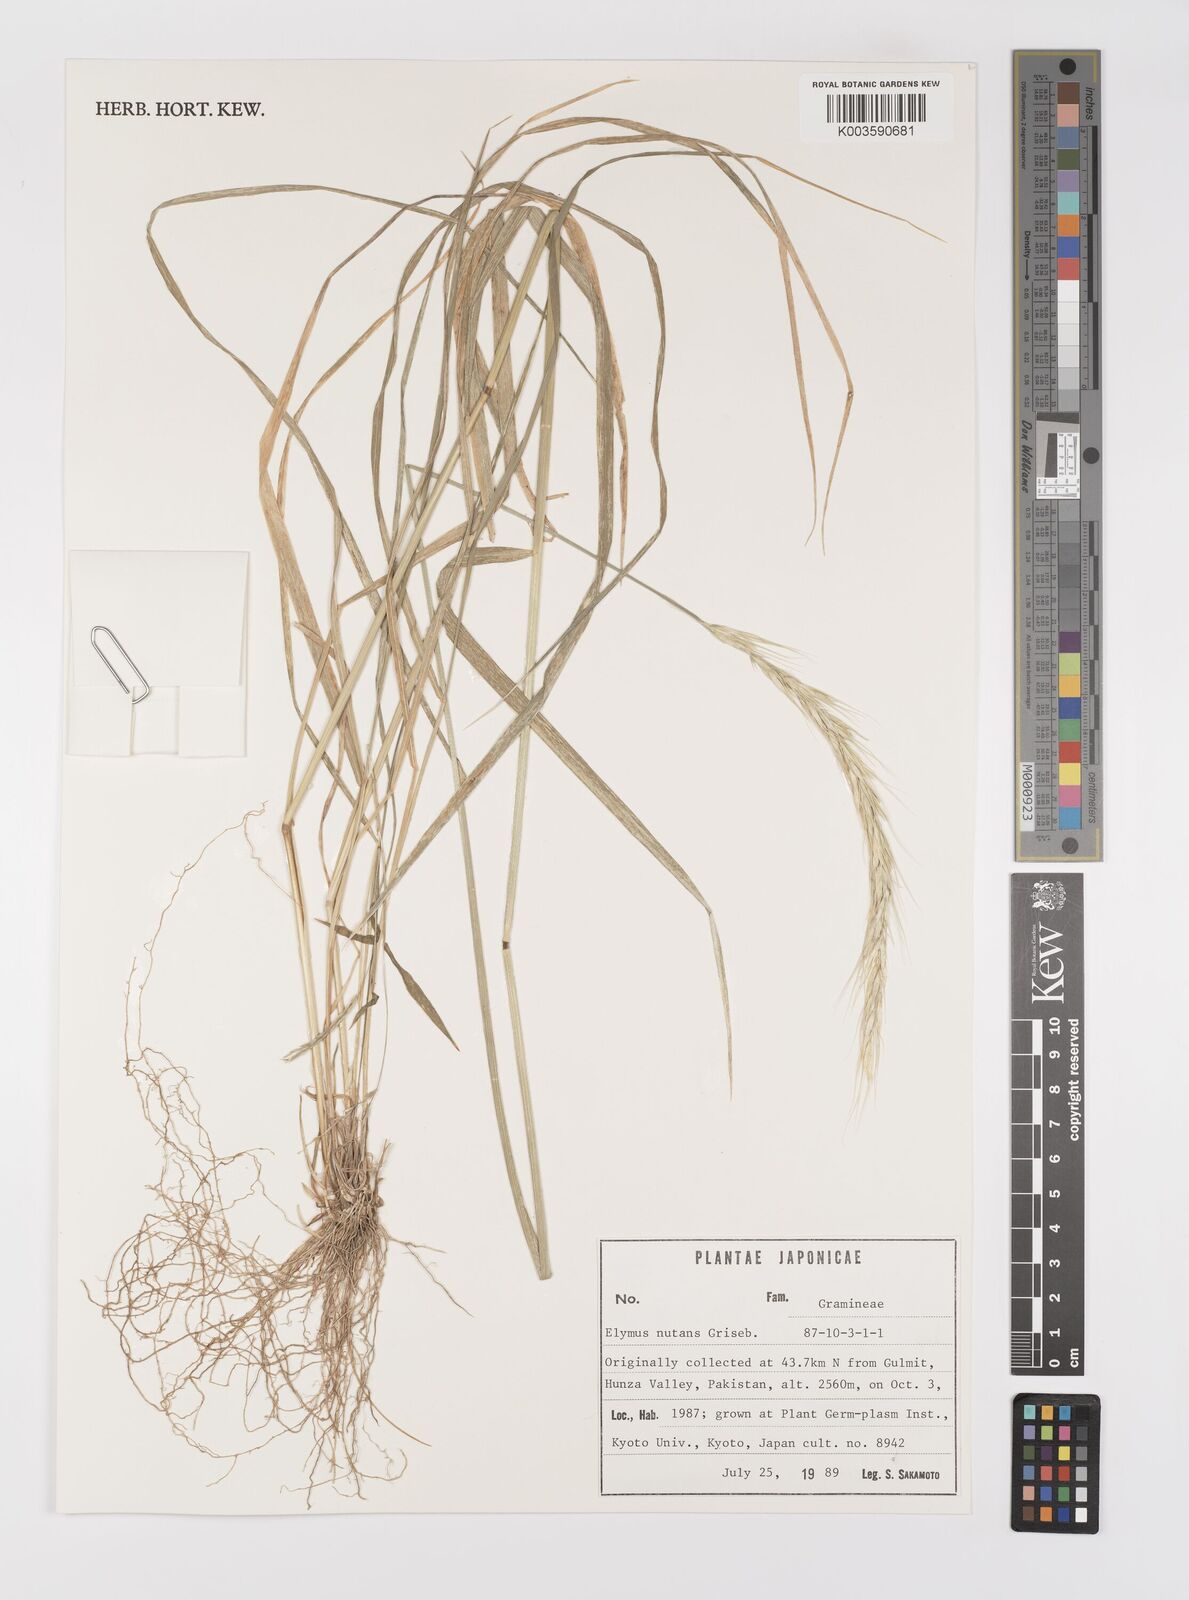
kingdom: Plantae
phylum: Tracheophyta
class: Liliopsida
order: Poales
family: Poaceae
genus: Elymus
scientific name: Elymus nutans
